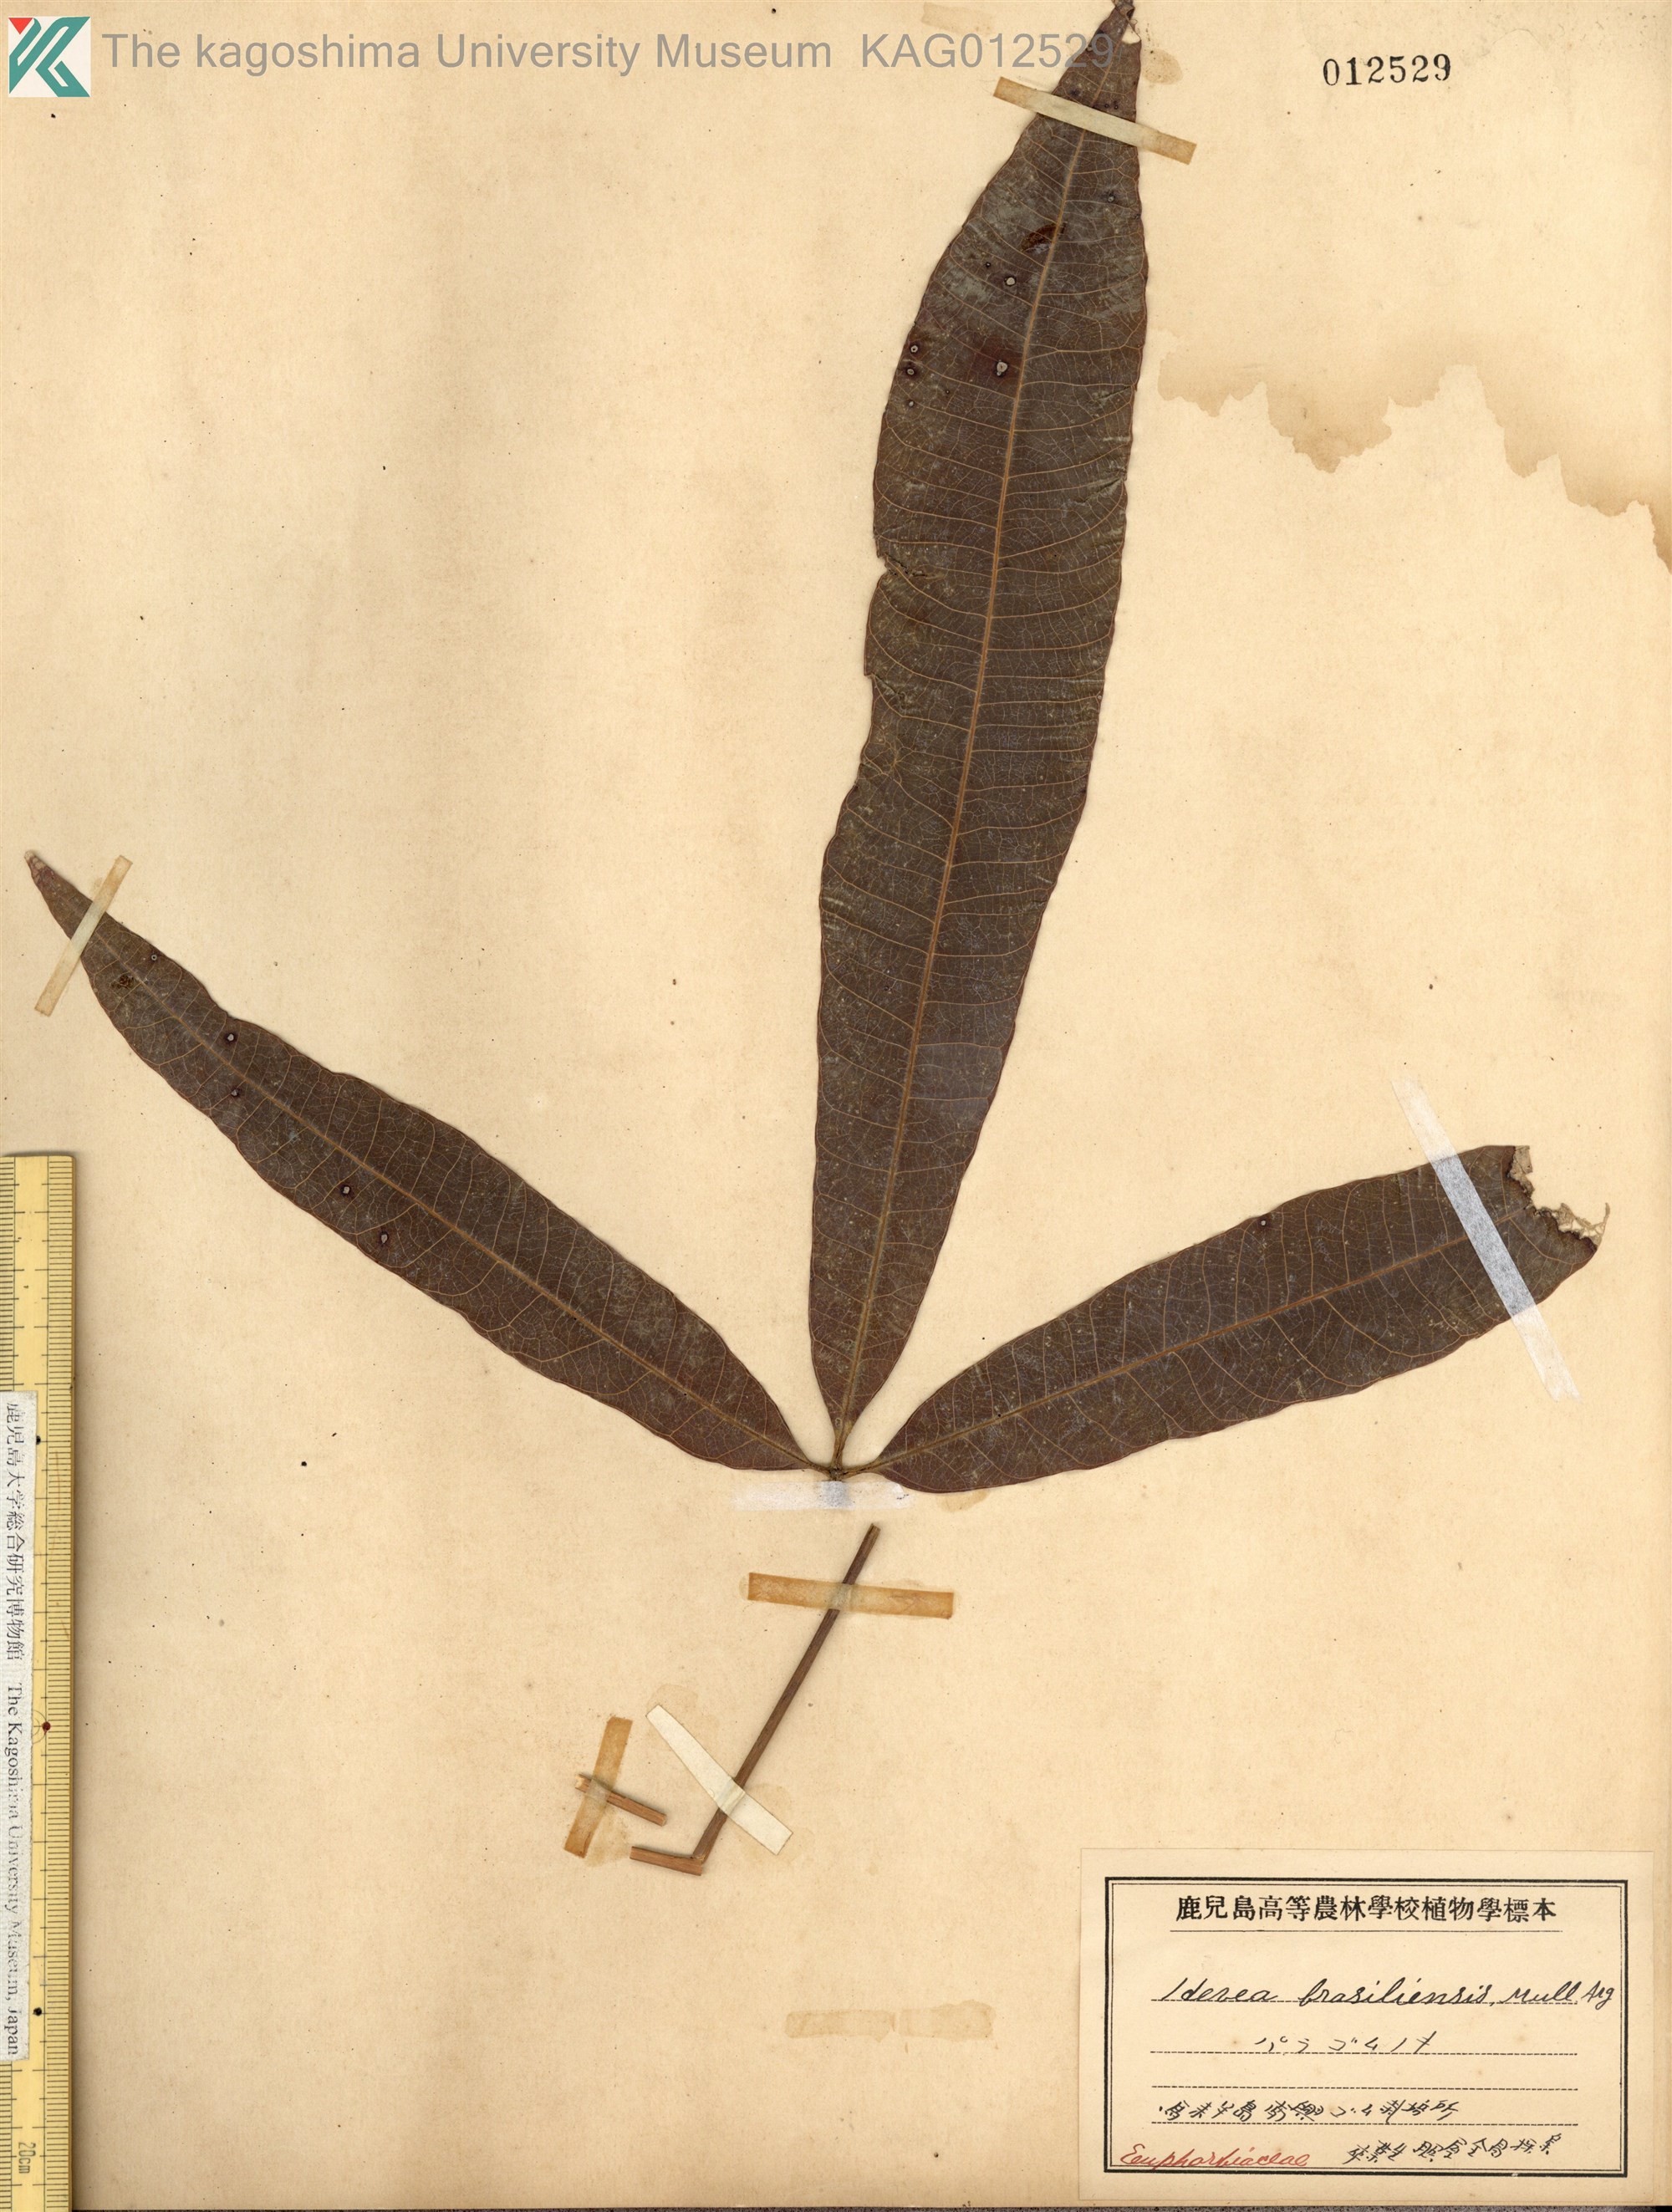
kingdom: Plantae
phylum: Tracheophyta
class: Magnoliopsida
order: Malpighiales
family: Euphorbiaceae
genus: Hevea
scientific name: Hevea brasiliensis
